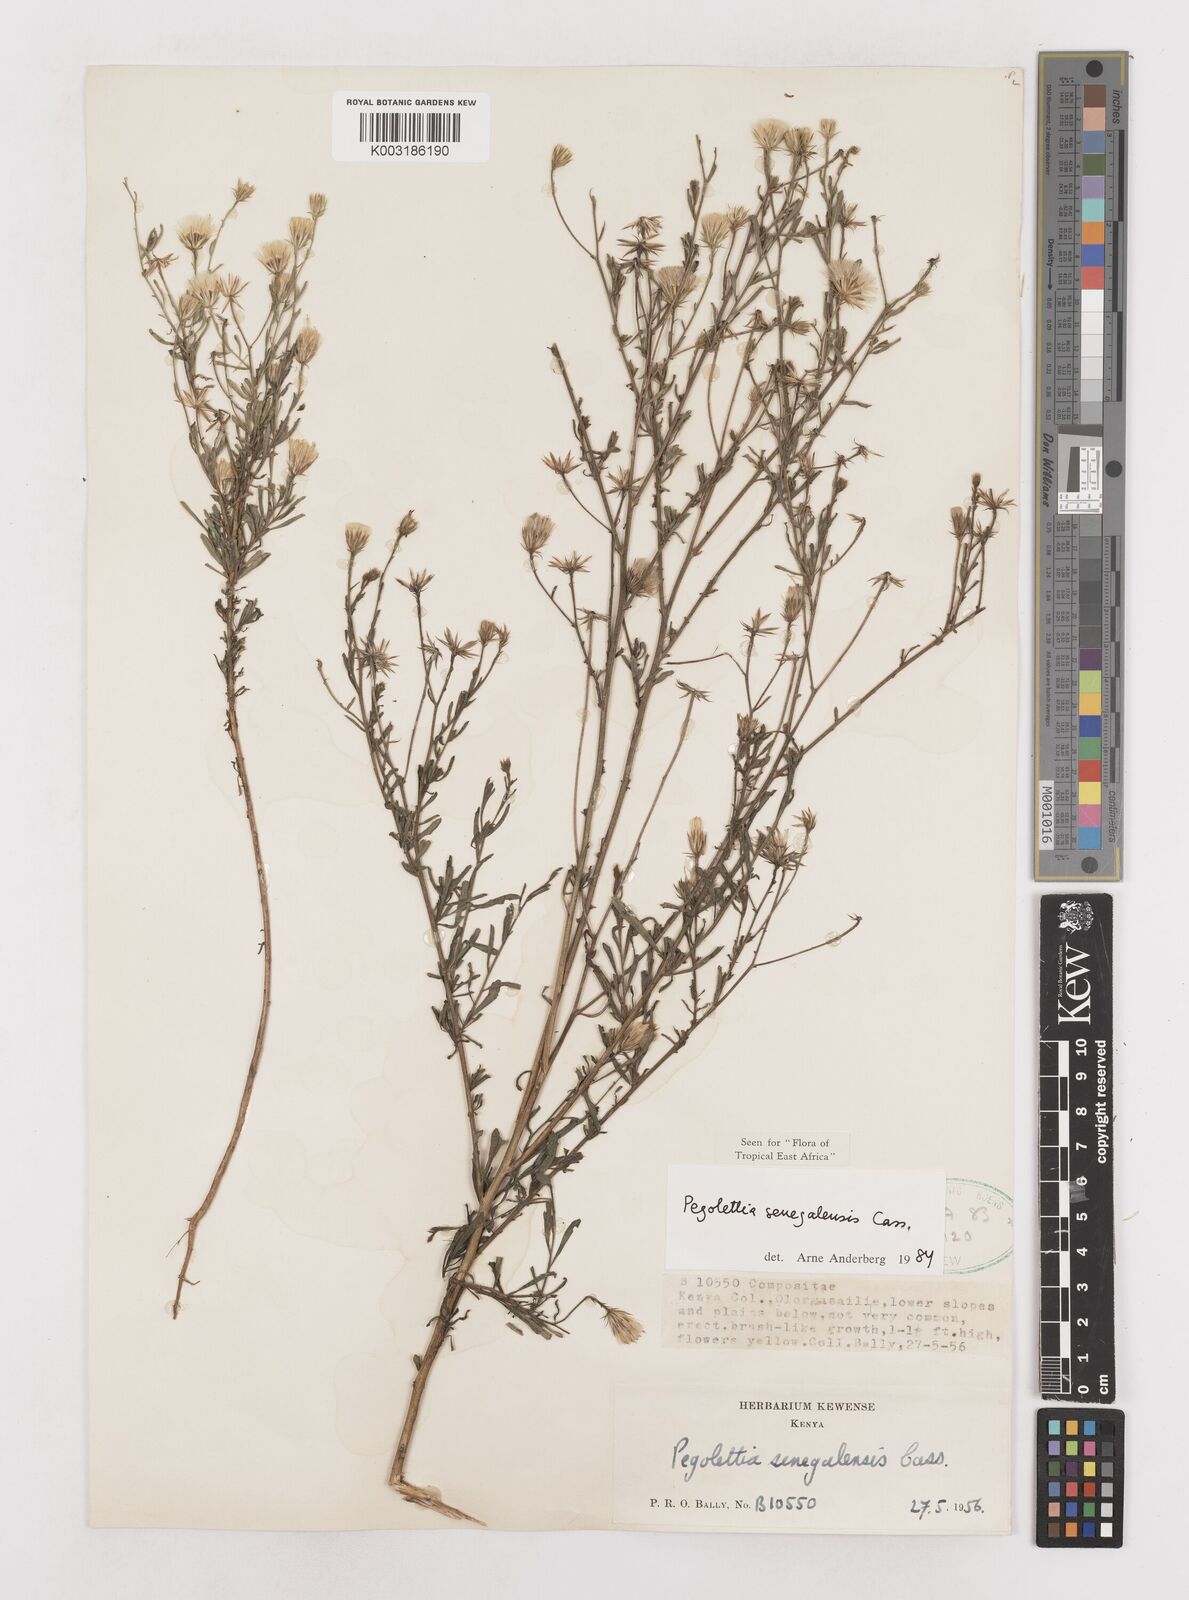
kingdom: Plantae
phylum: Tracheophyta
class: Magnoliopsida
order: Asterales
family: Asteraceae
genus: Pegolettia
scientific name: Pegolettia senegalensis
